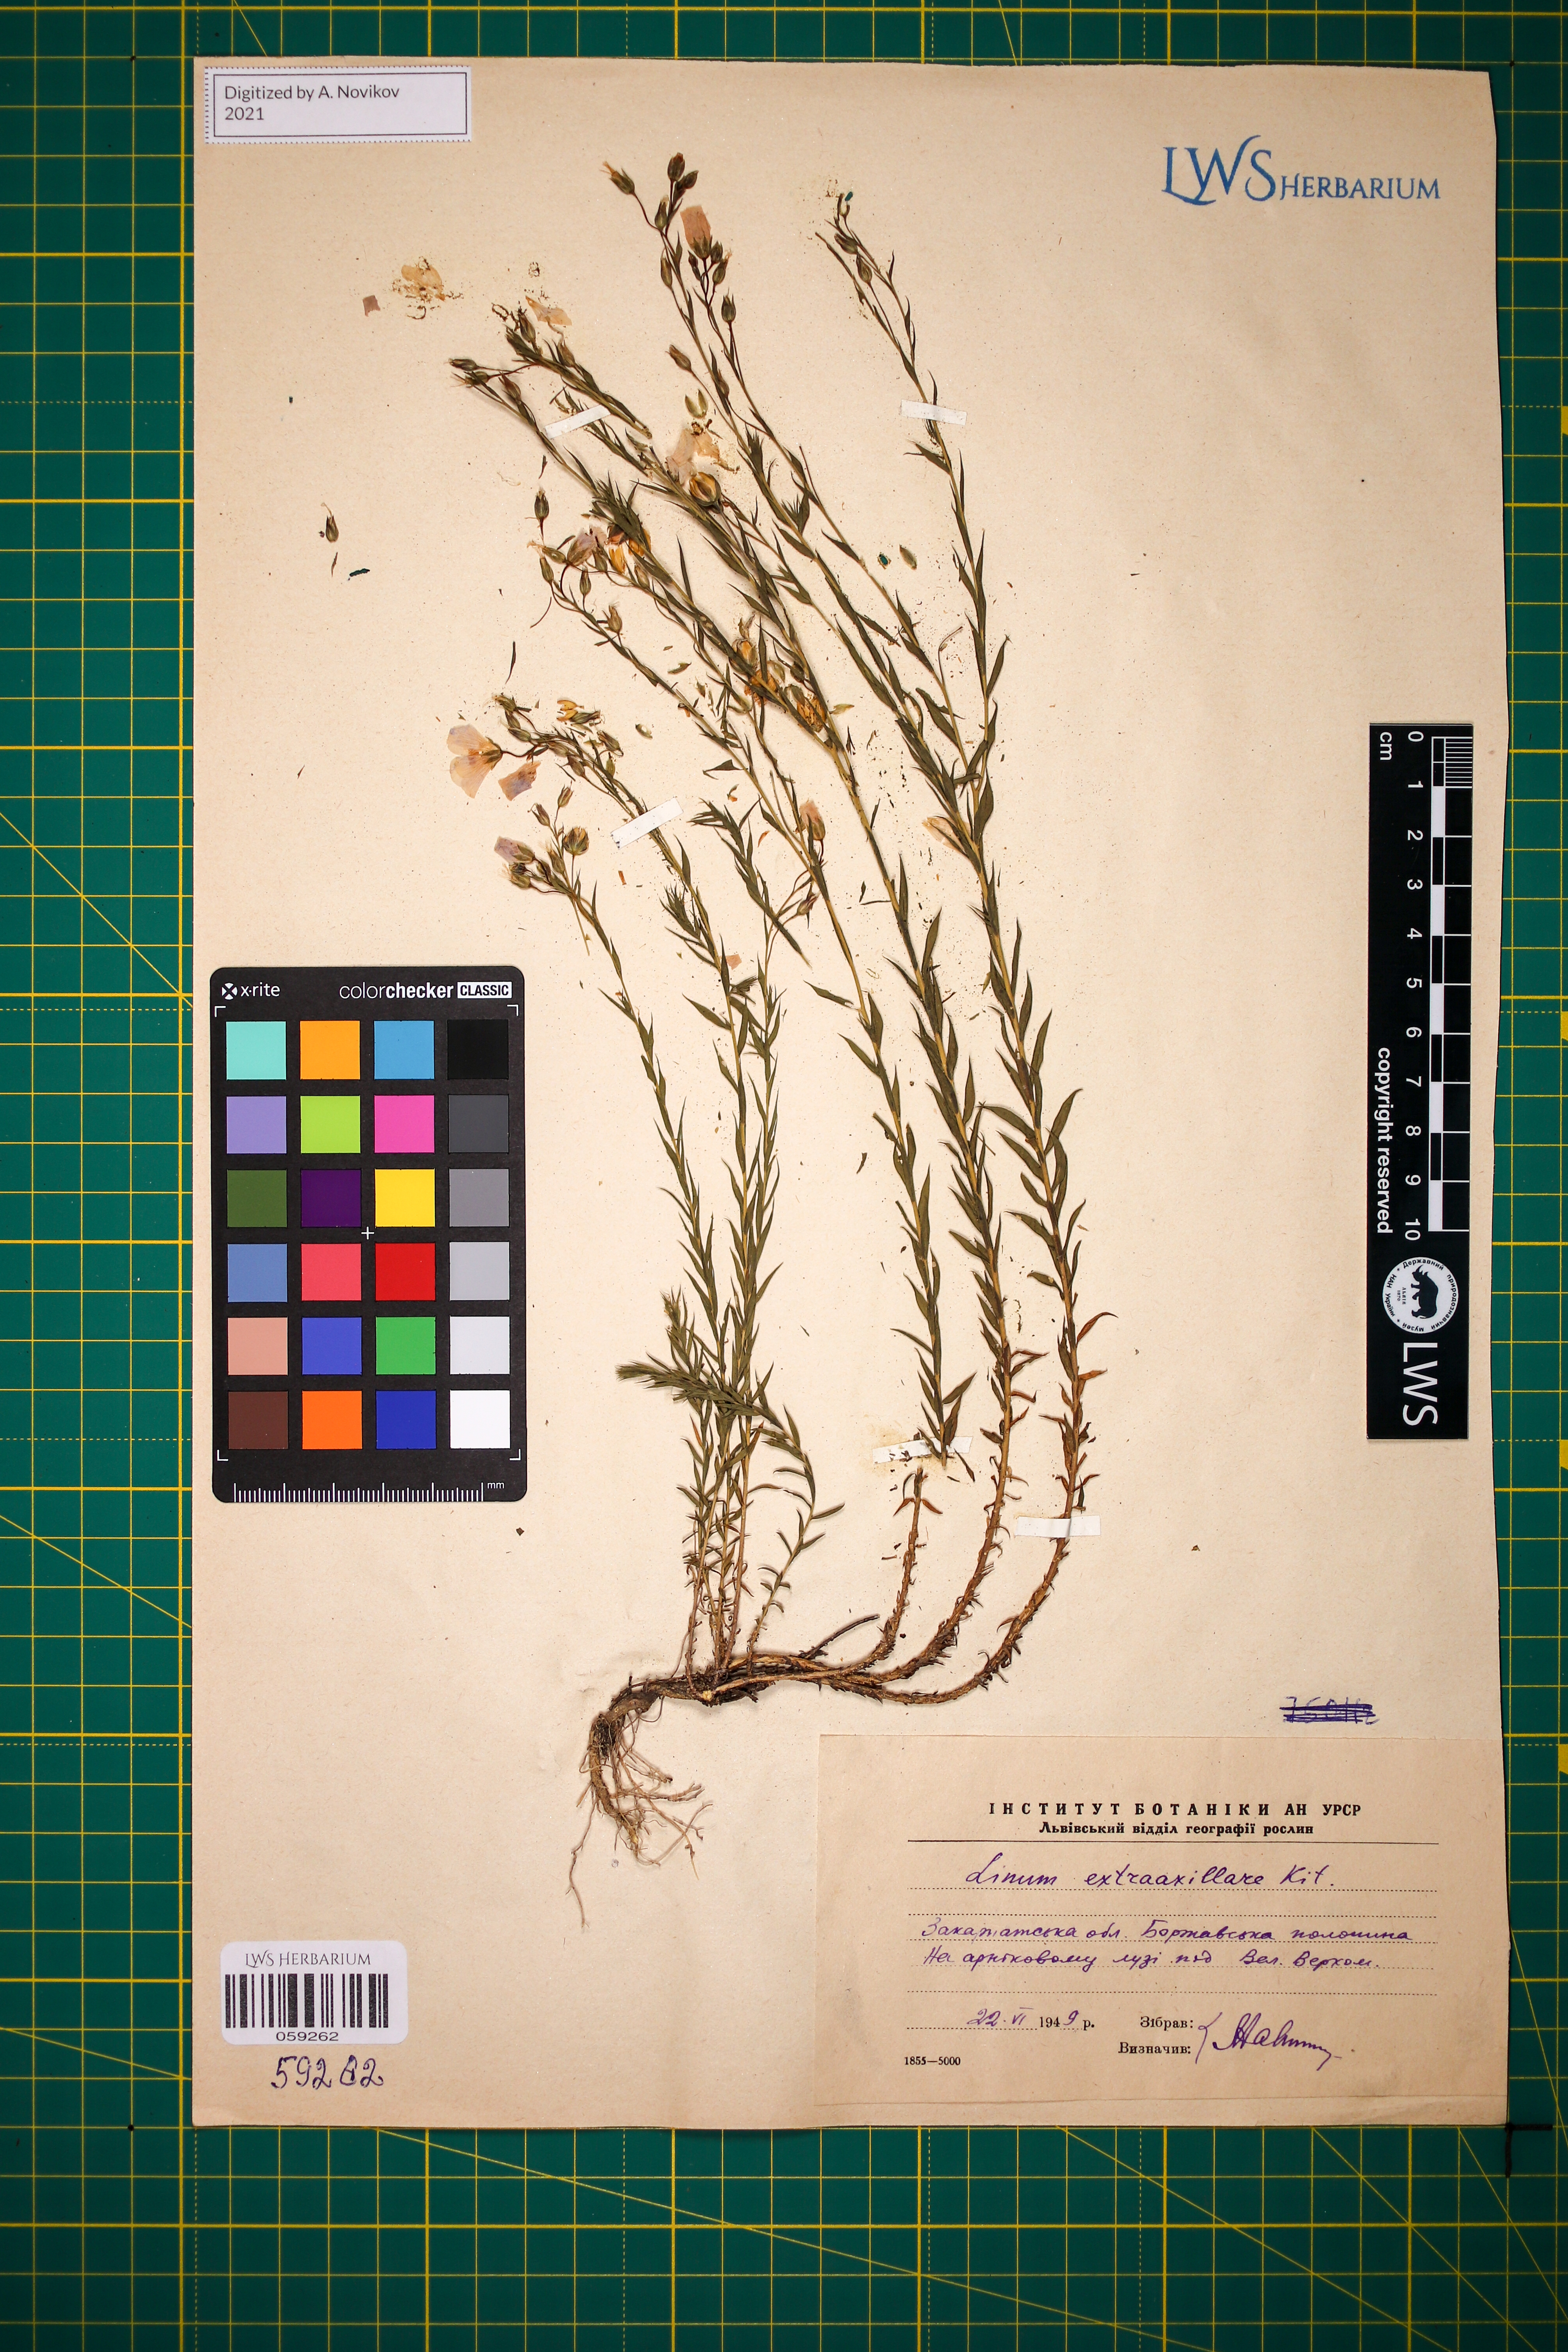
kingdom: Plantae
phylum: Tracheophyta
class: Magnoliopsida
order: Malpighiales
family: Linaceae
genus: Linum
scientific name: Linum perenne
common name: Blue flax
